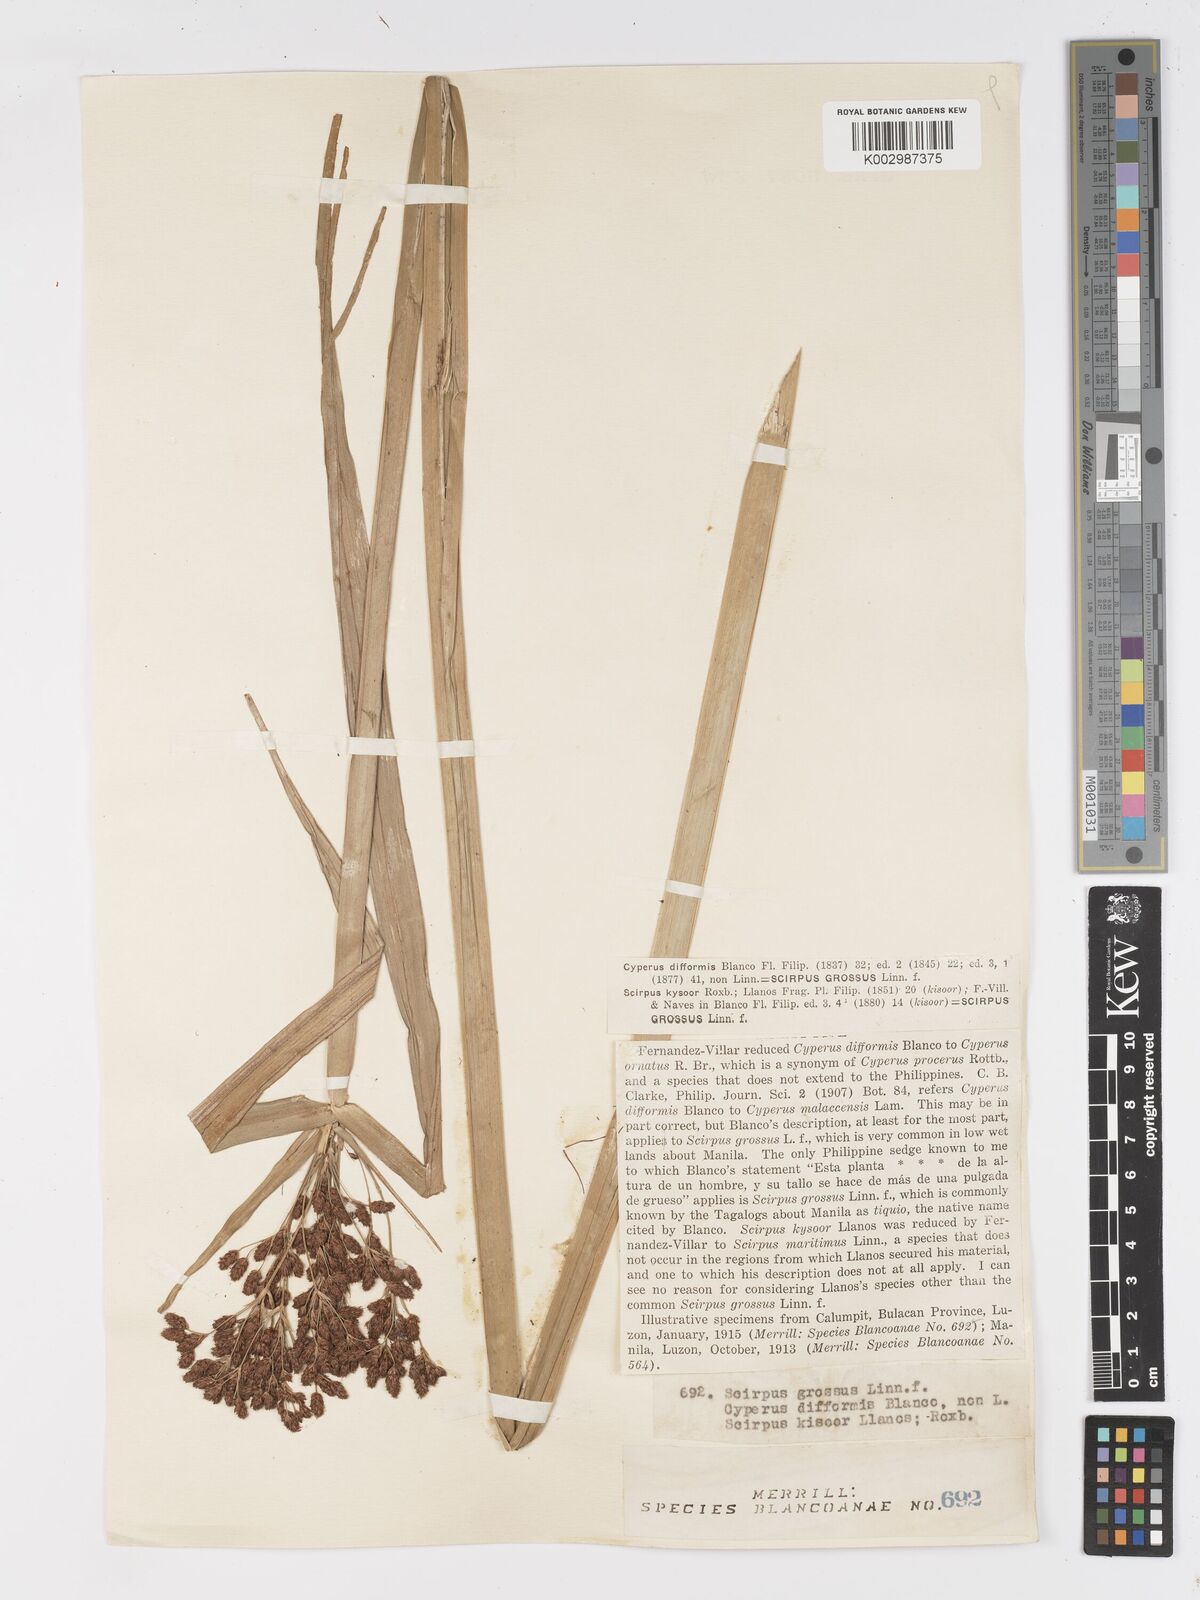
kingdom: Plantae
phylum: Tracheophyta
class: Liliopsida
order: Poales
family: Cyperaceae
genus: Actinoscirpus
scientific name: Actinoscirpus grossus
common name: Giant bur rush
